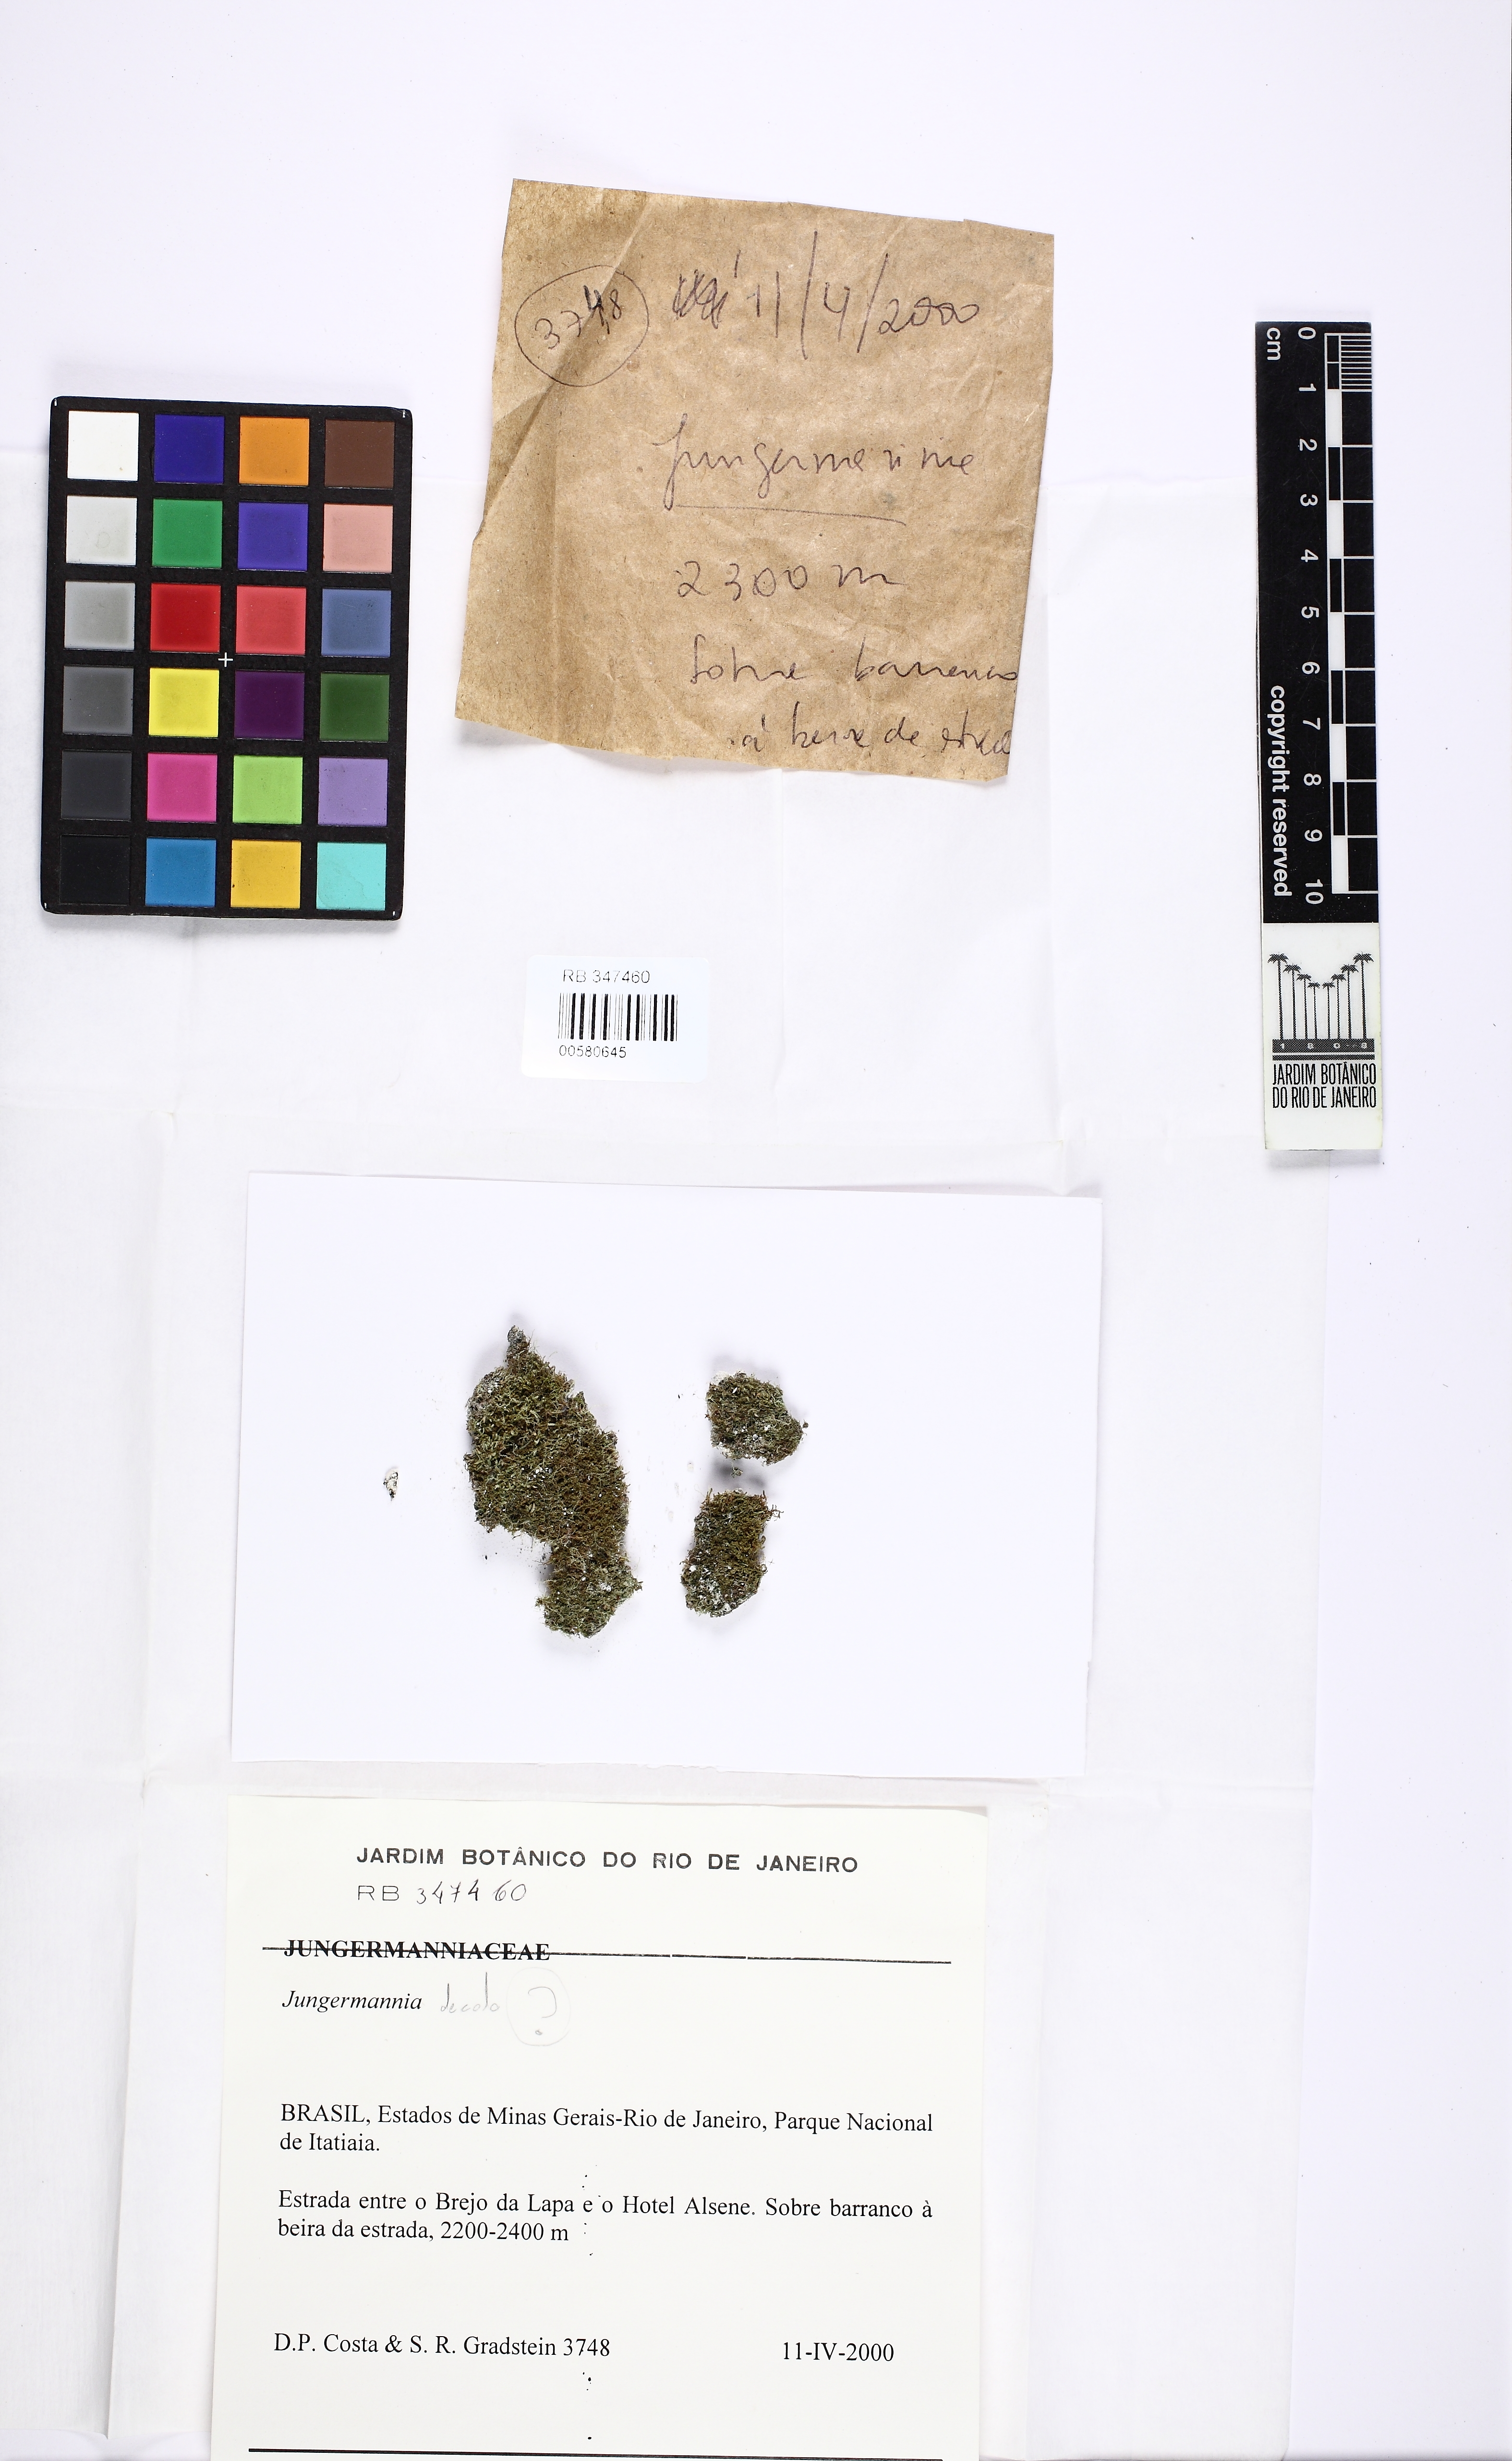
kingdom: Plantae
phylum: Marchantiophyta
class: Jungermanniopsida
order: Jungermanniales
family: Jungermanniaceae
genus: Jungermannia
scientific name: Jungermannia
